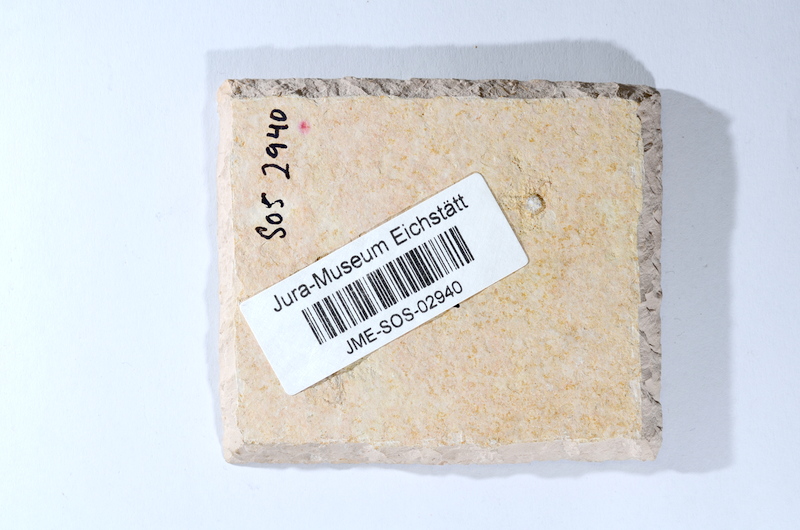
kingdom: Animalia
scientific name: Animalia
